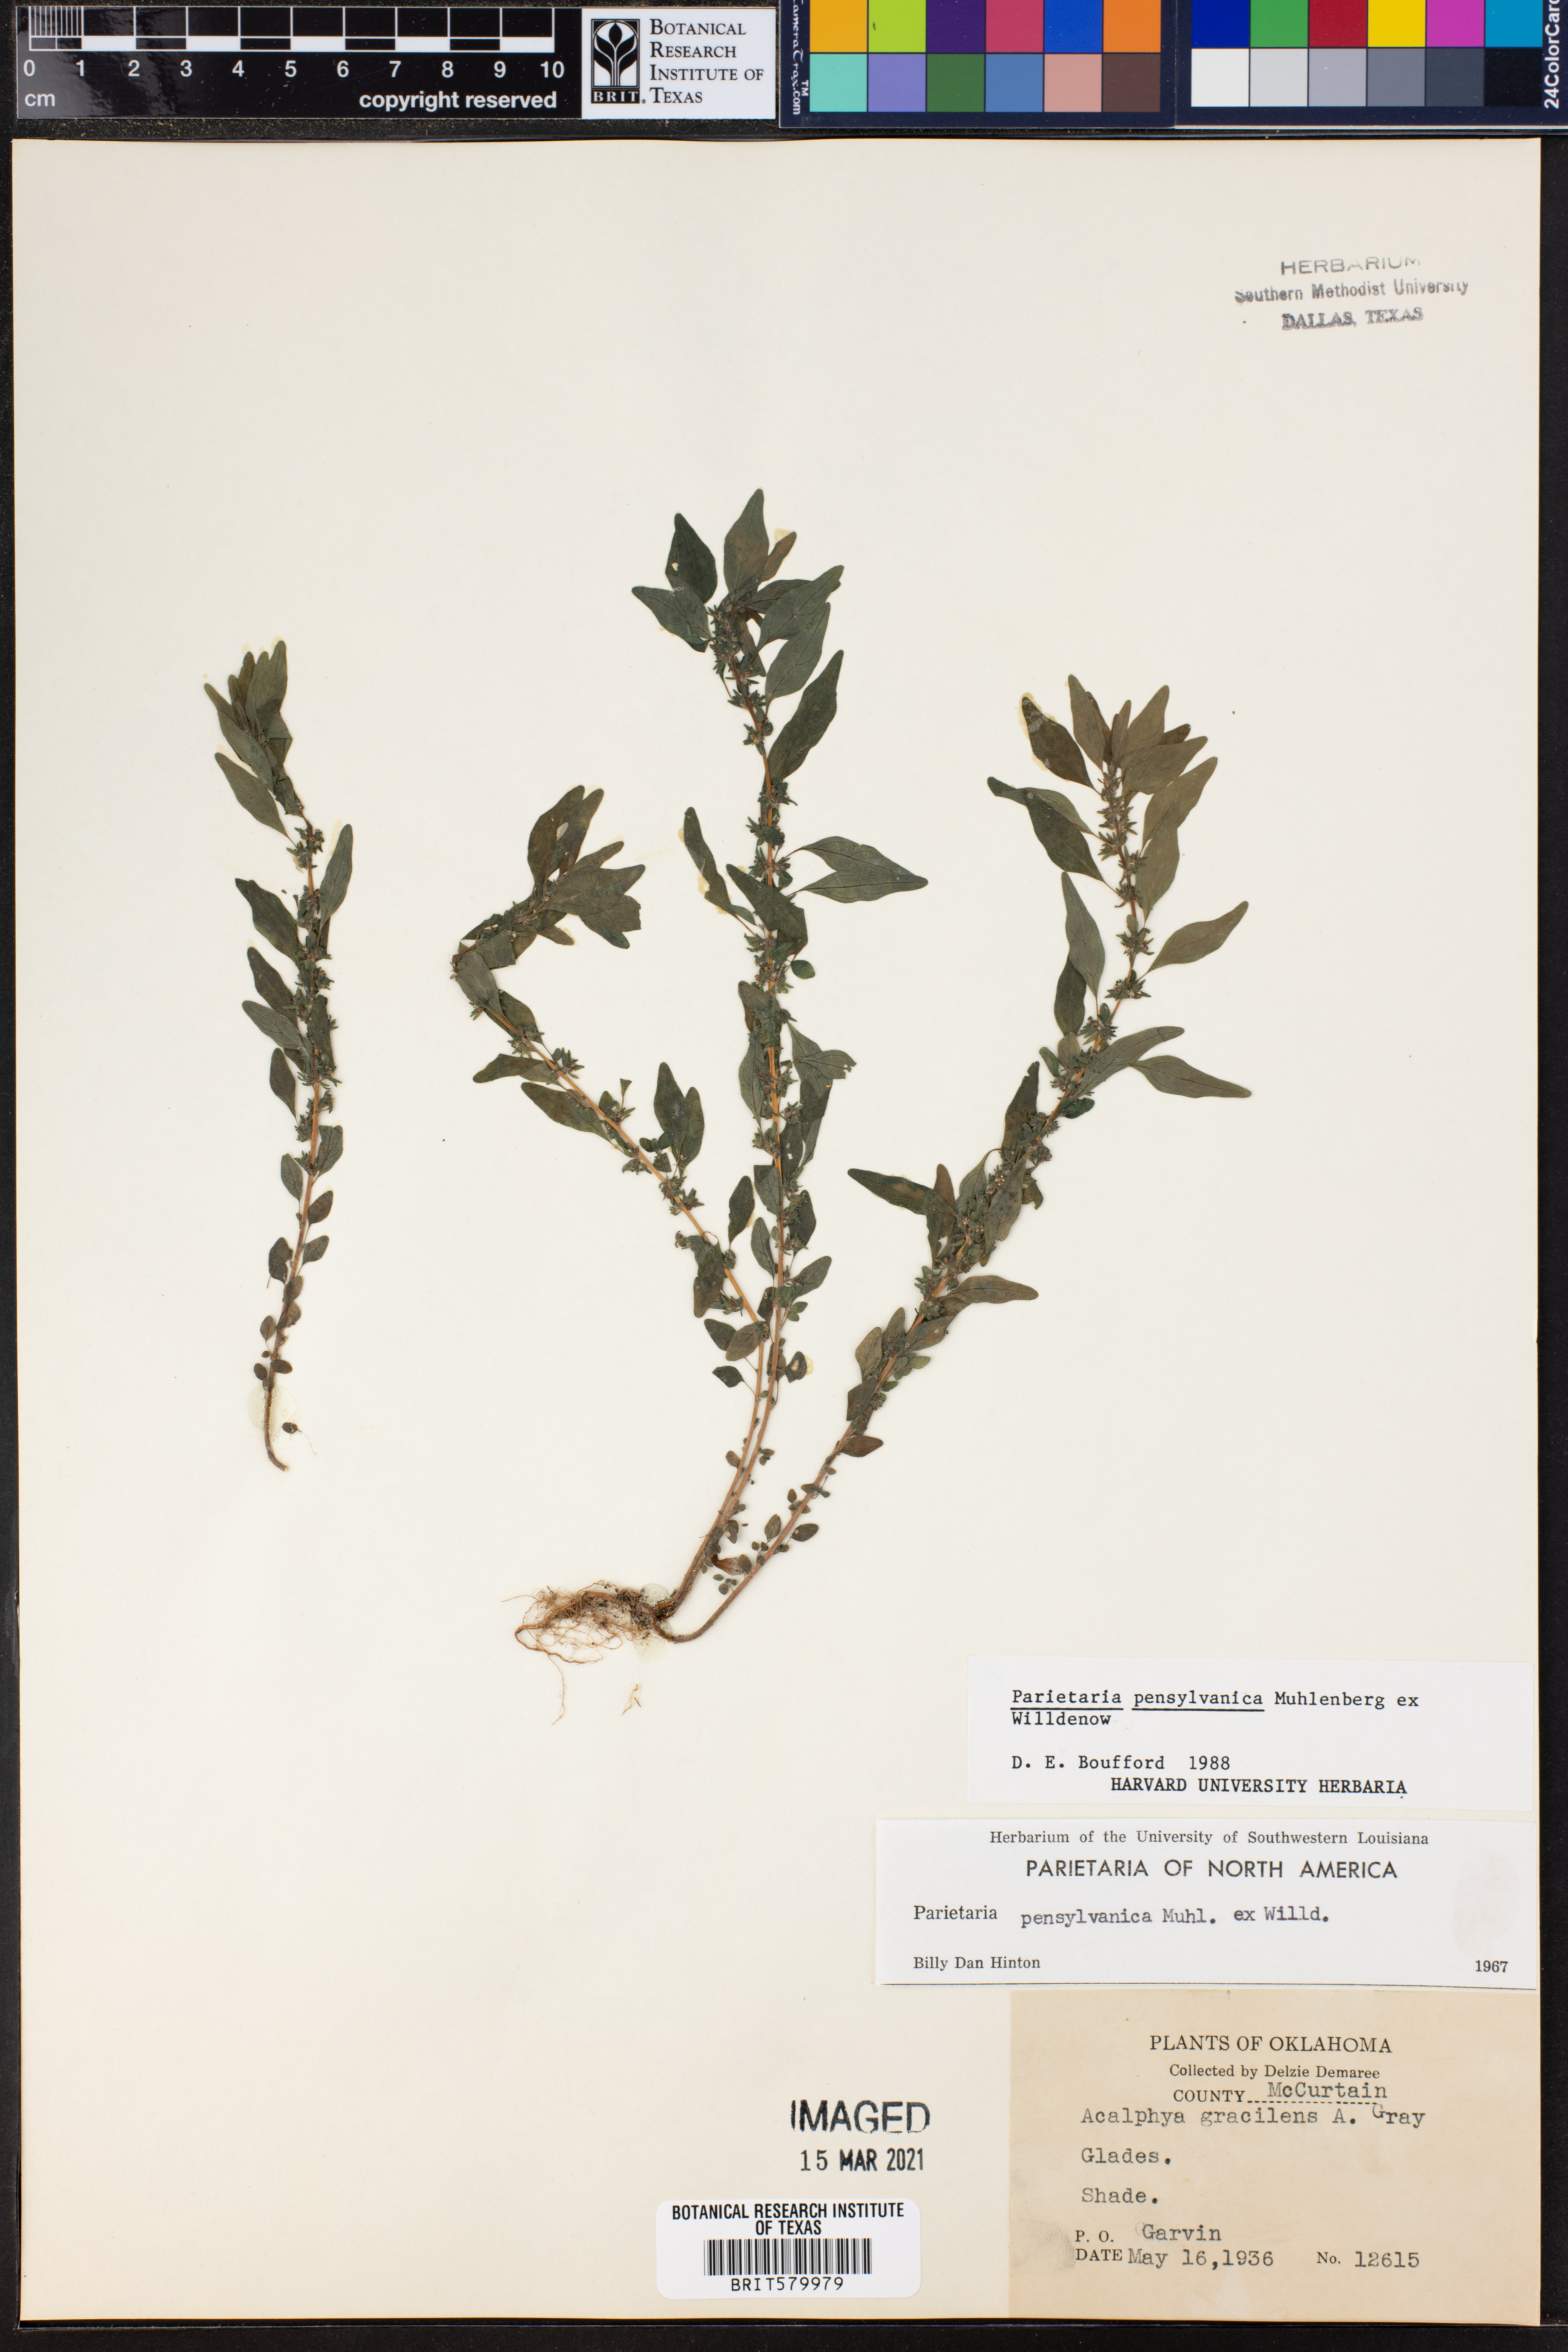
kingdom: Plantae
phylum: Tracheophyta
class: Magnoliopsida
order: Rosales
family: Urticaceae
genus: Parietaria
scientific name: Parietaria pensylvanica
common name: Pennsylvania pellitory
